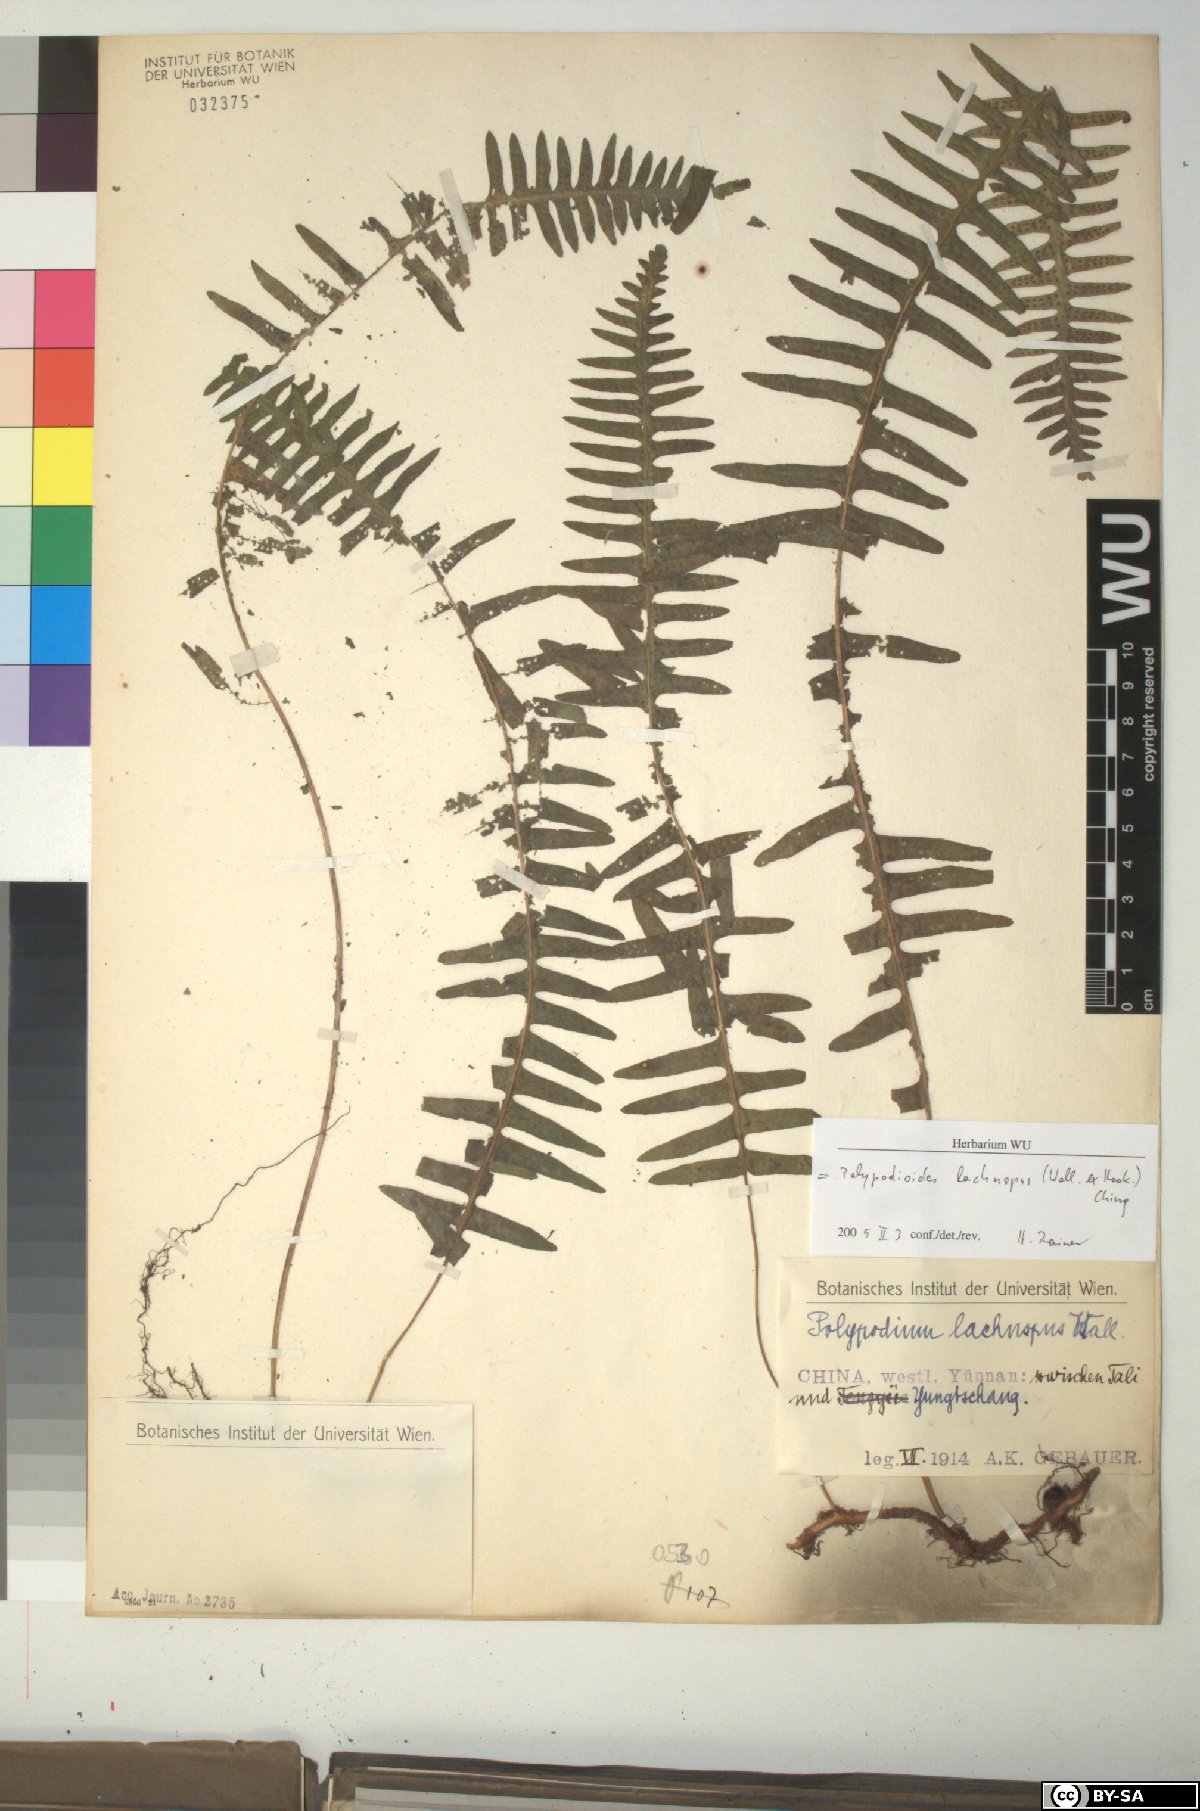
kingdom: Plantae
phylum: Tracheophyta
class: Polypodiopsida
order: Polypodiales
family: Polypodiaceae
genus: Goniophlebium
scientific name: Goniophlebium lachnopus
